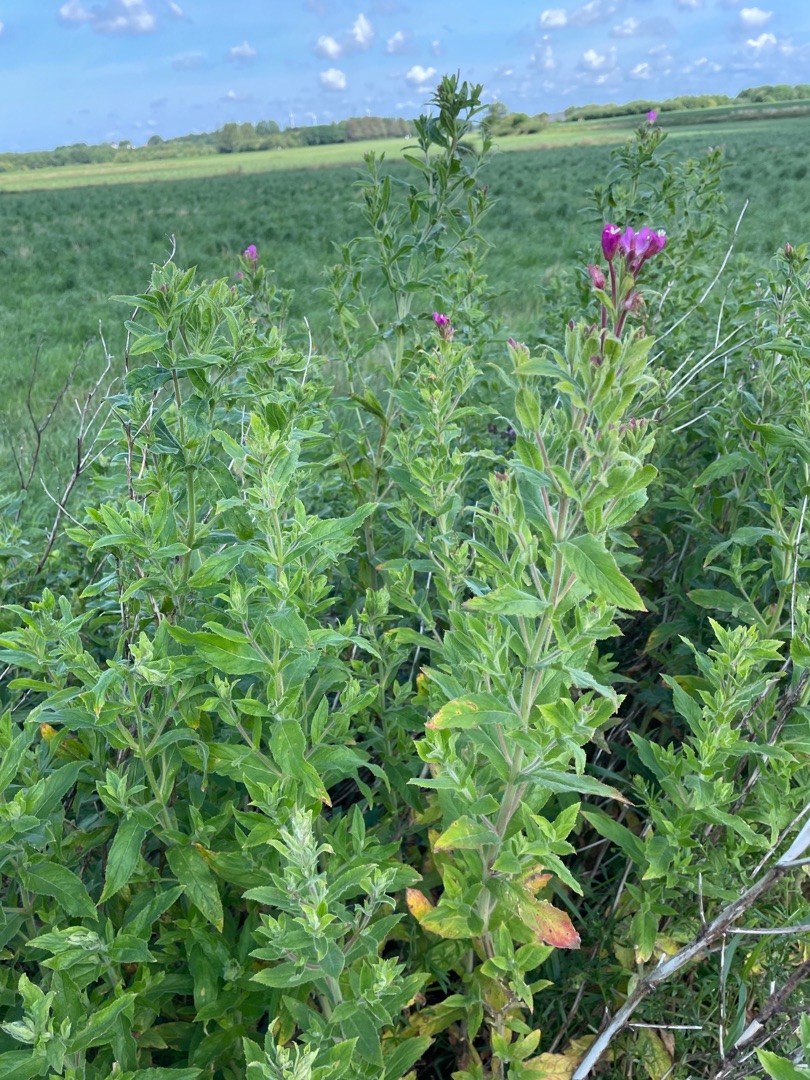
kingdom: Plantae
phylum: Tracheophyta
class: Magnoliopsida
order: Myrtales
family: Onagraceae
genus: Epilobium
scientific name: Epilobium hirsutum
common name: Lådden dueurt
